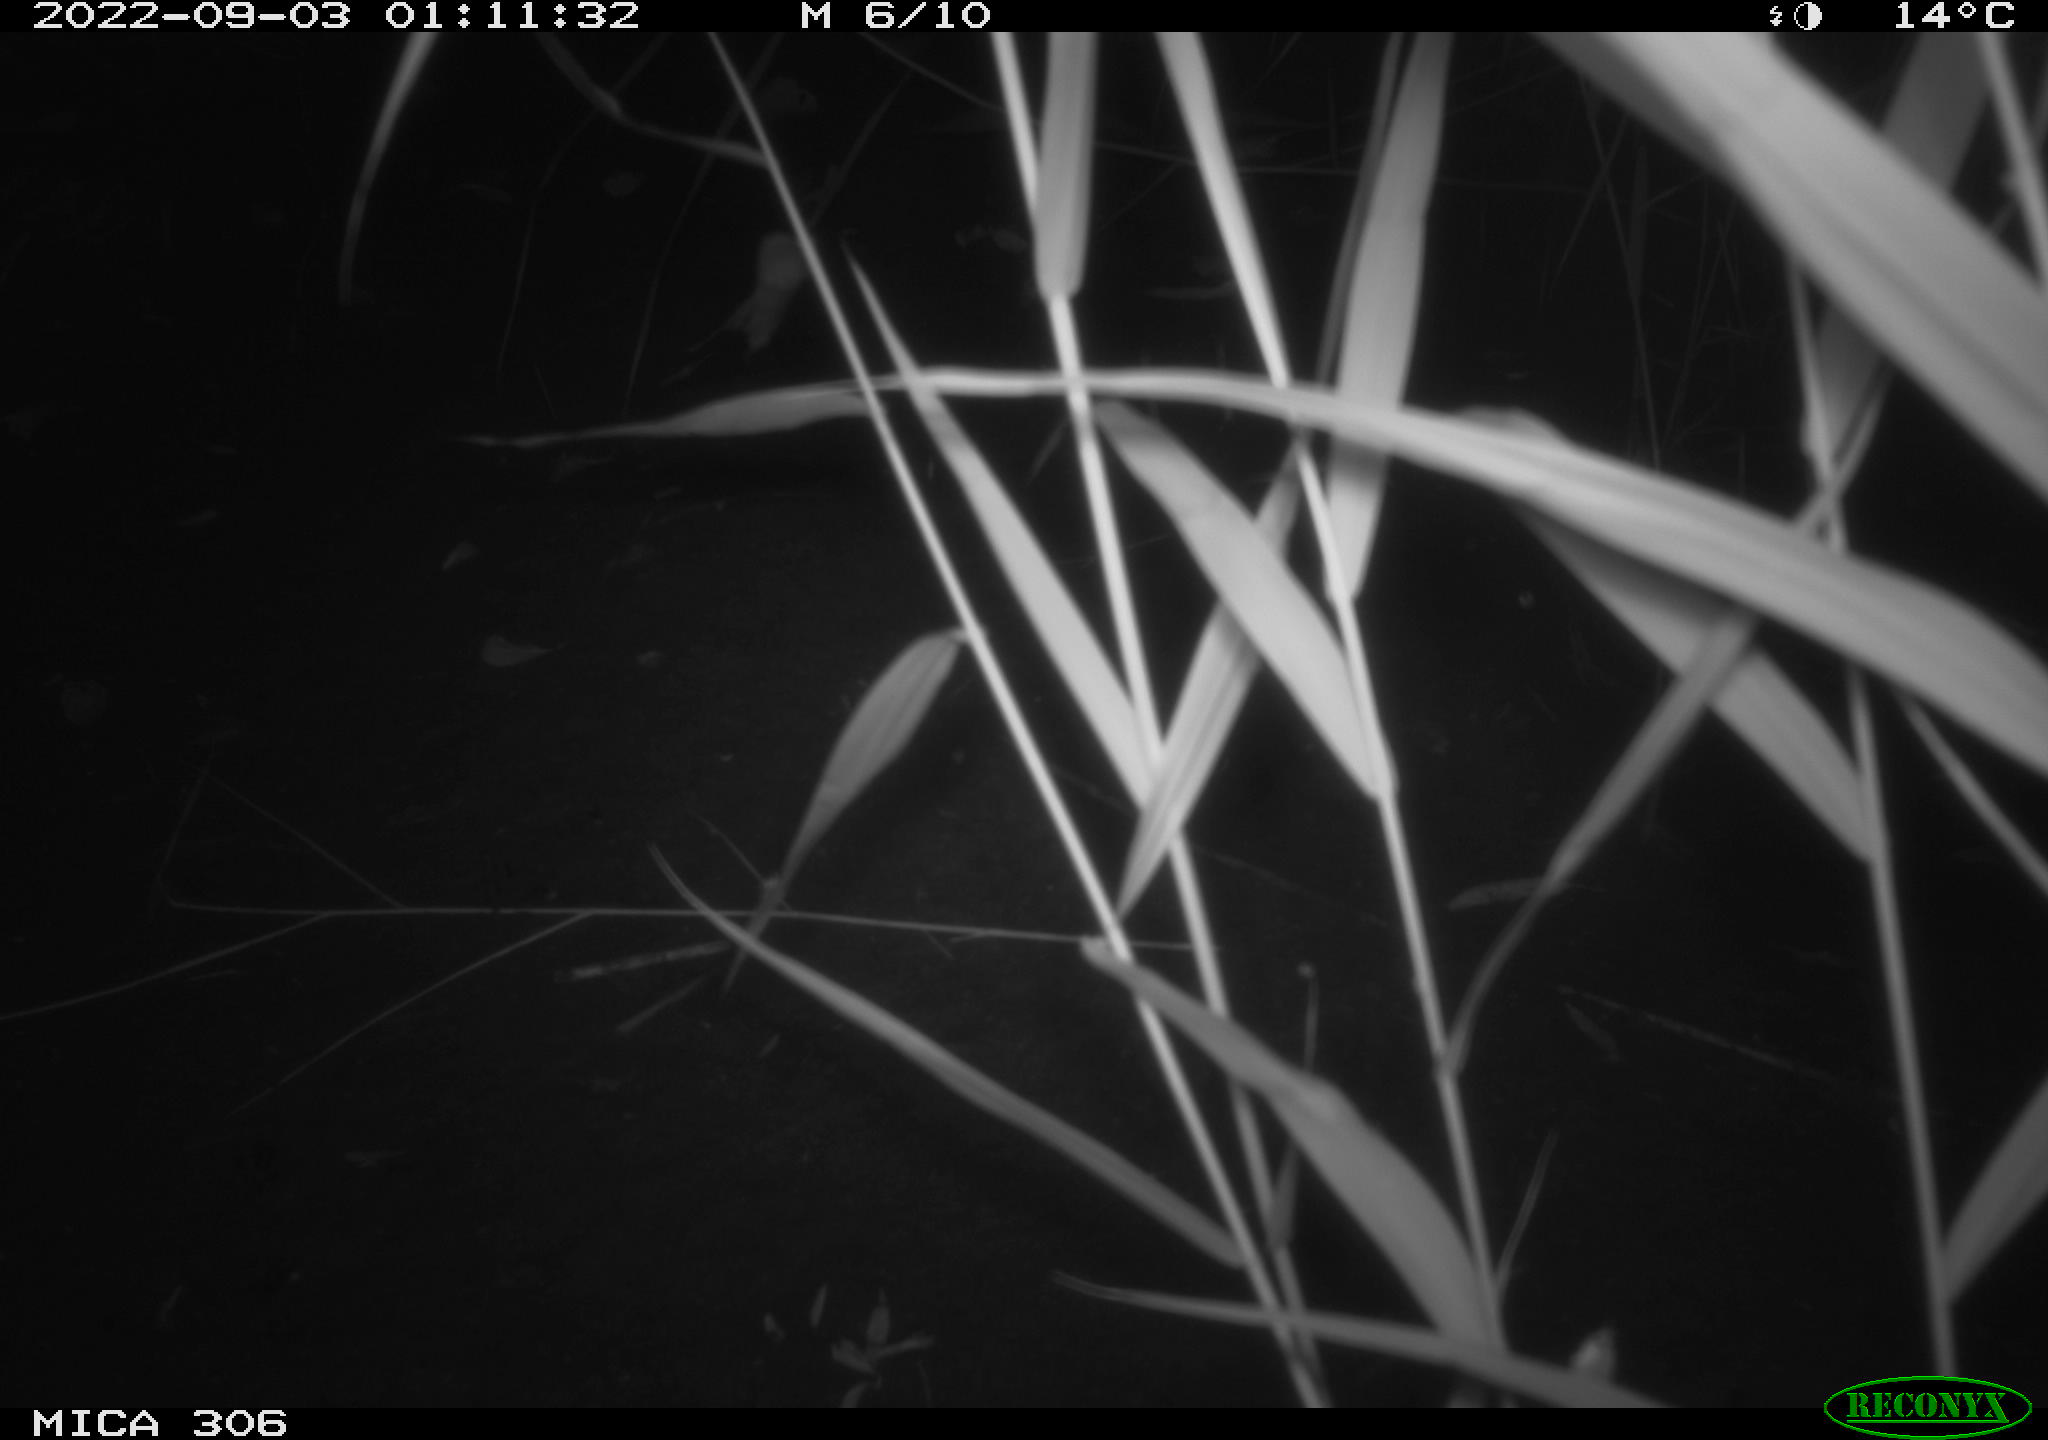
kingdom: Animalia
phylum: Chordata
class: Mammalia
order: Rodentia
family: Muridae
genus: Rattus
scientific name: Rattus norvegicus
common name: Brown rat
